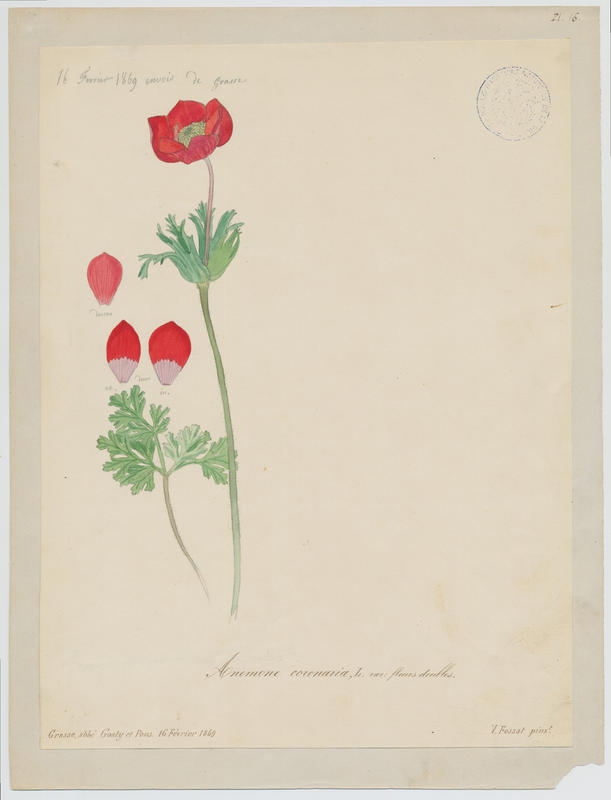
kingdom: Plantae
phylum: Tracheophyta
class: Magnoliopsida
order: Ranunculales
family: Ranunculaceae
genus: Anemone
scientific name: Anemone coronaria
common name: Poppy anemone
